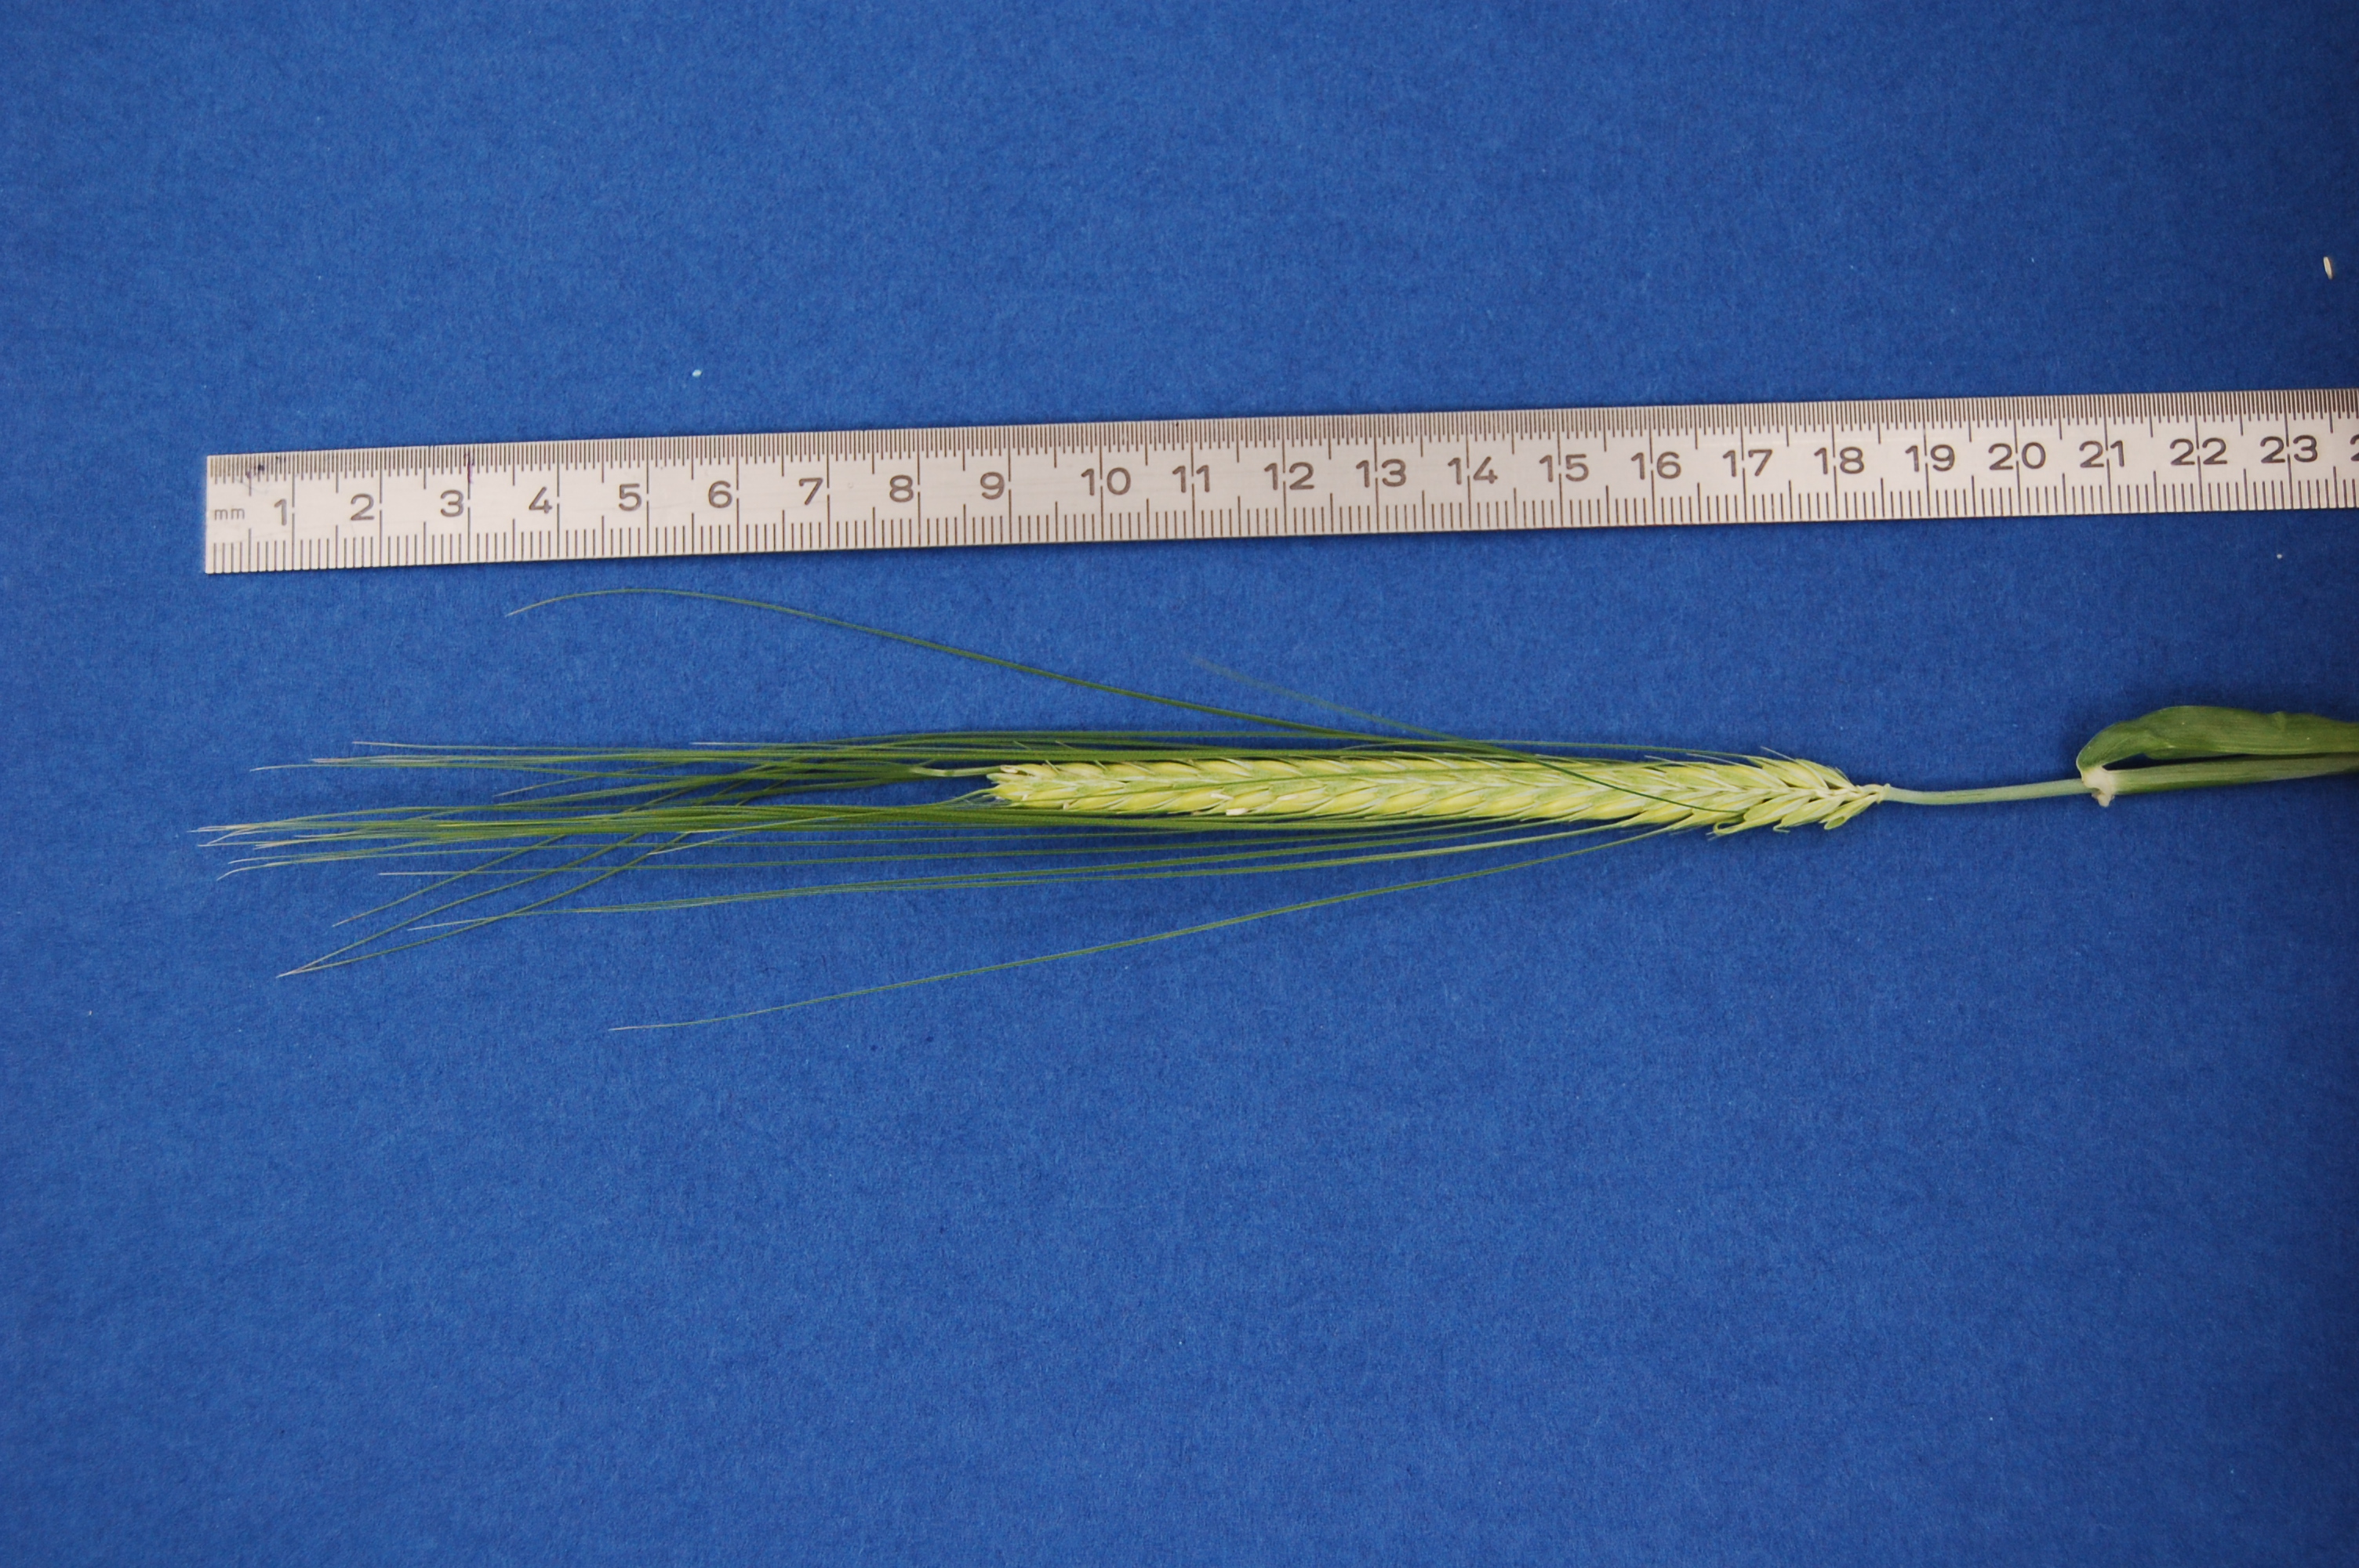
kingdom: Plantae
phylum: Tracheophyta
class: Liliopsida
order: Poales
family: Poaceae
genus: Hordeum
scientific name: Hordeum vulgare
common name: Common barley
